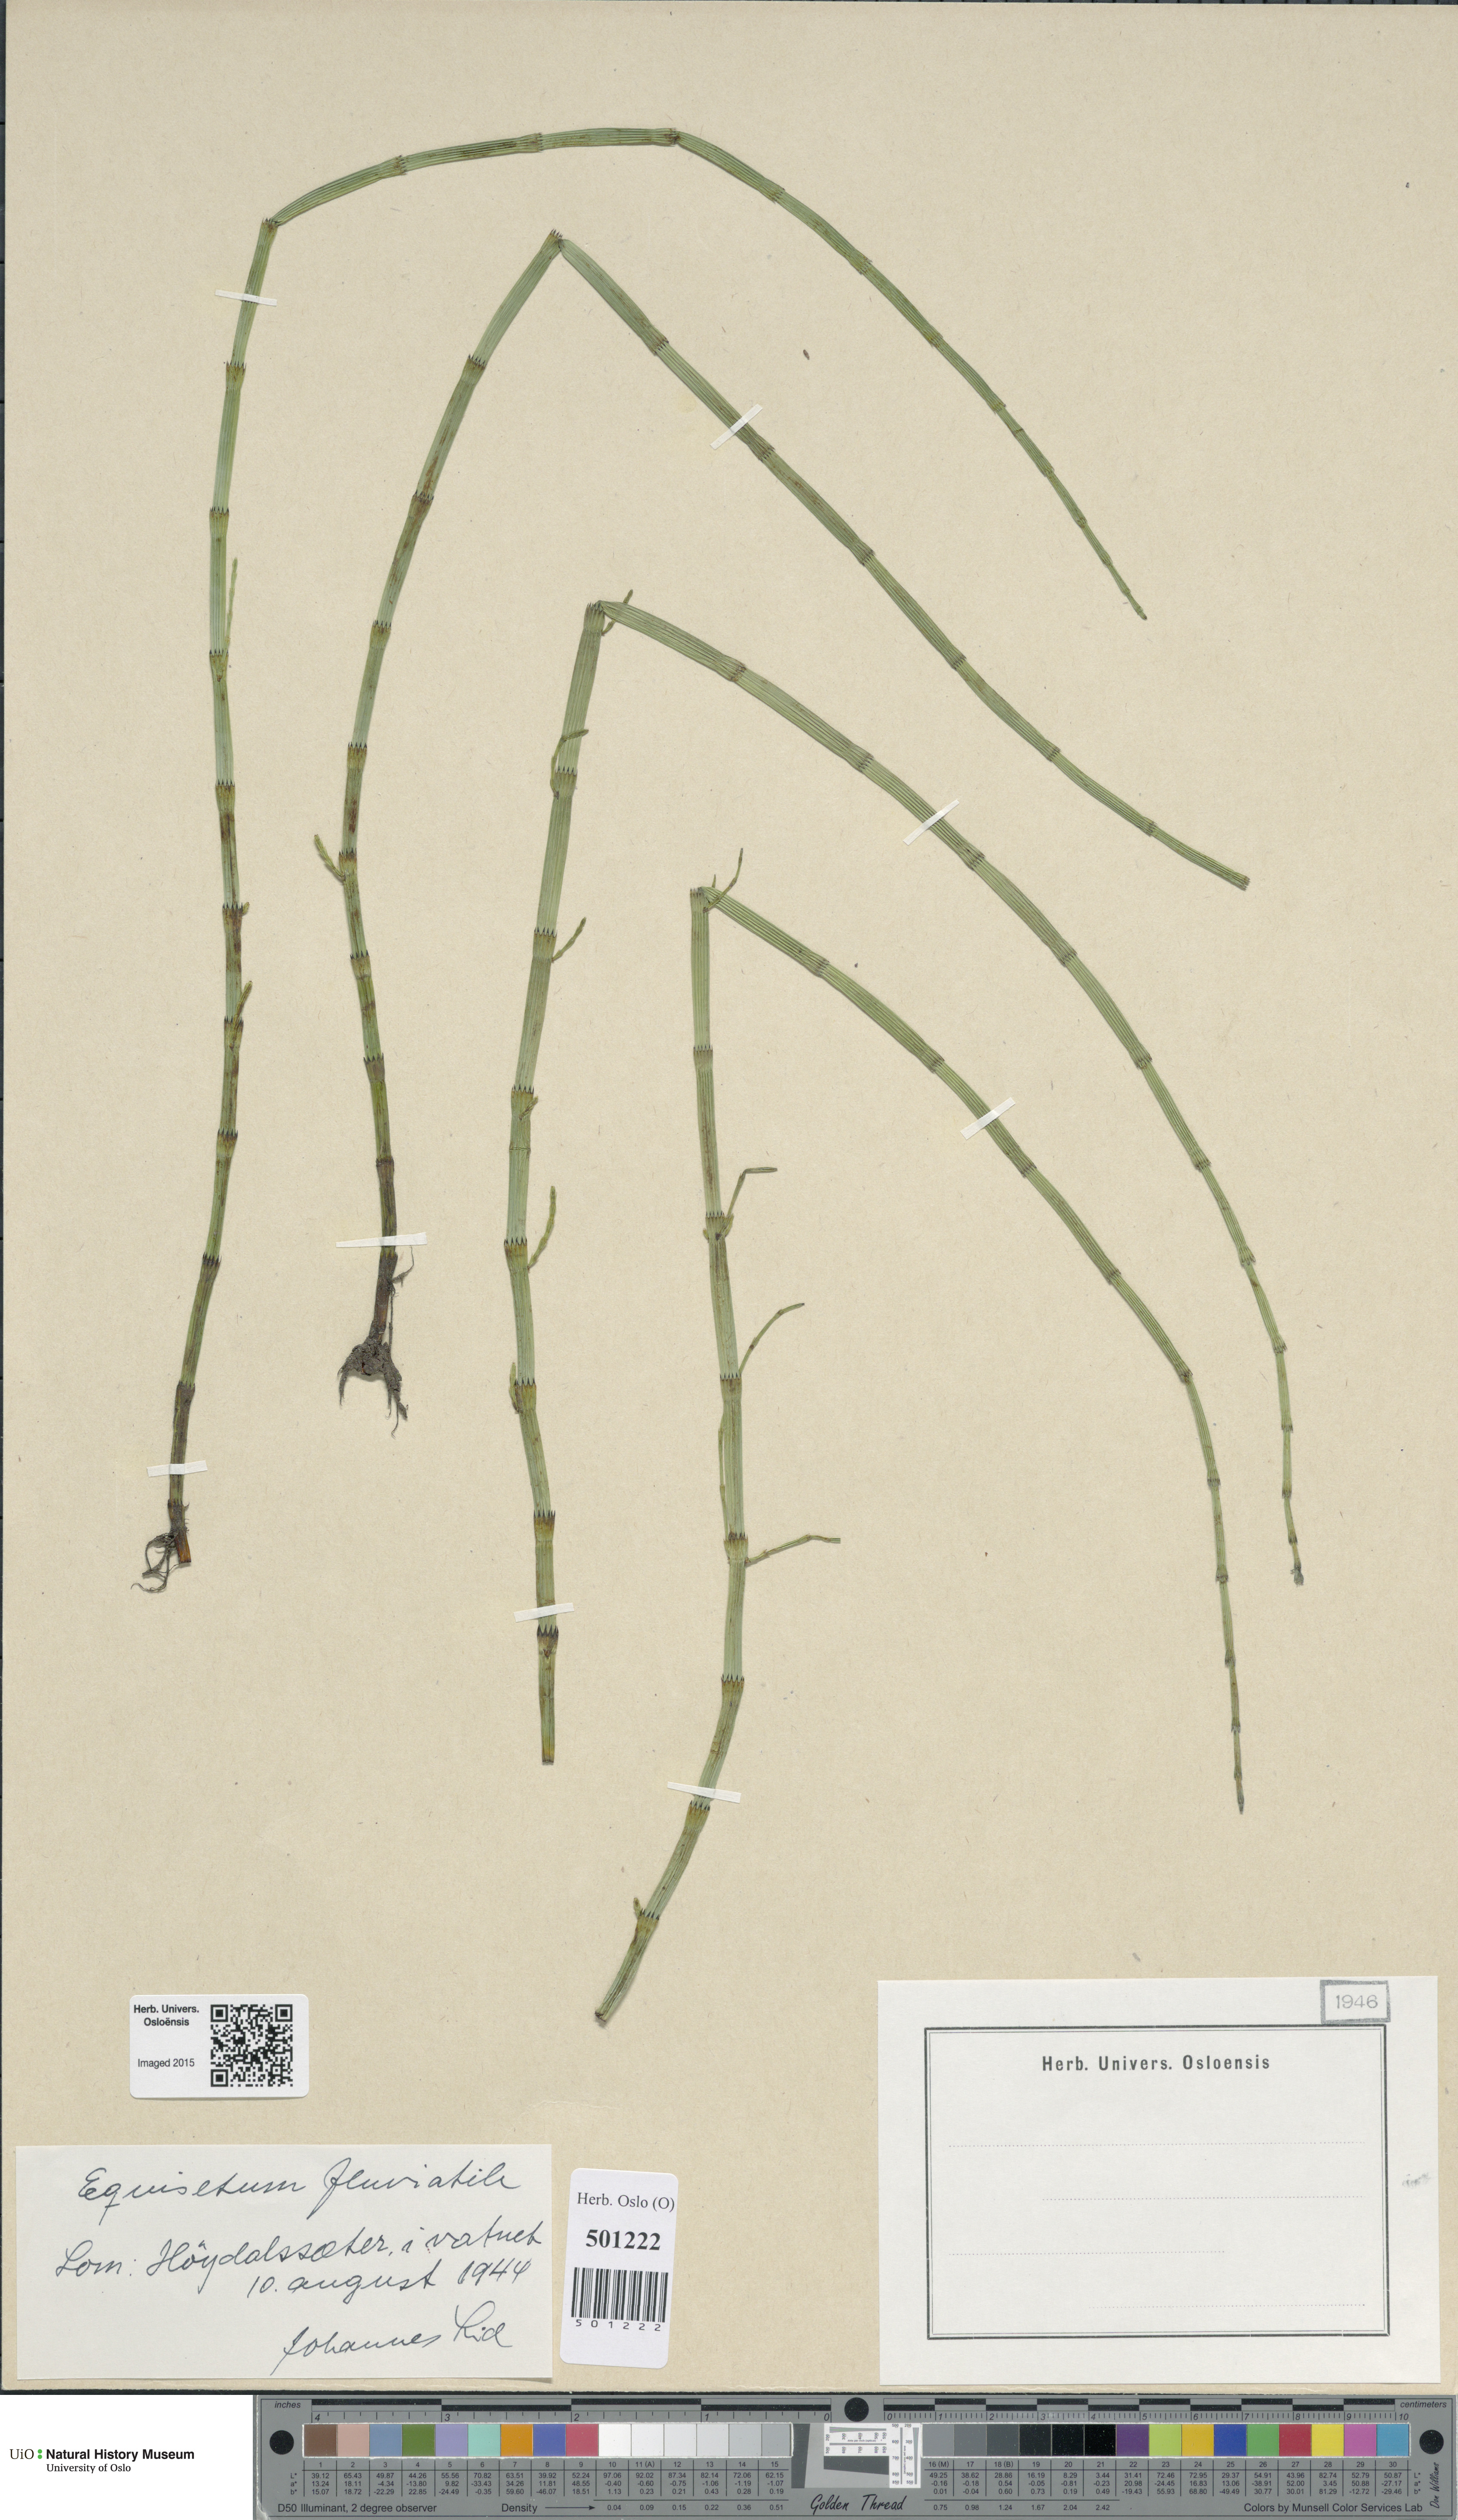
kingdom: Plantae
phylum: Tracheophyta
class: Polypodiopsida
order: Equisetales
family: Equisetaceae
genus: Equisetum
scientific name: Equisetum fluviatile
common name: Water horsetail
